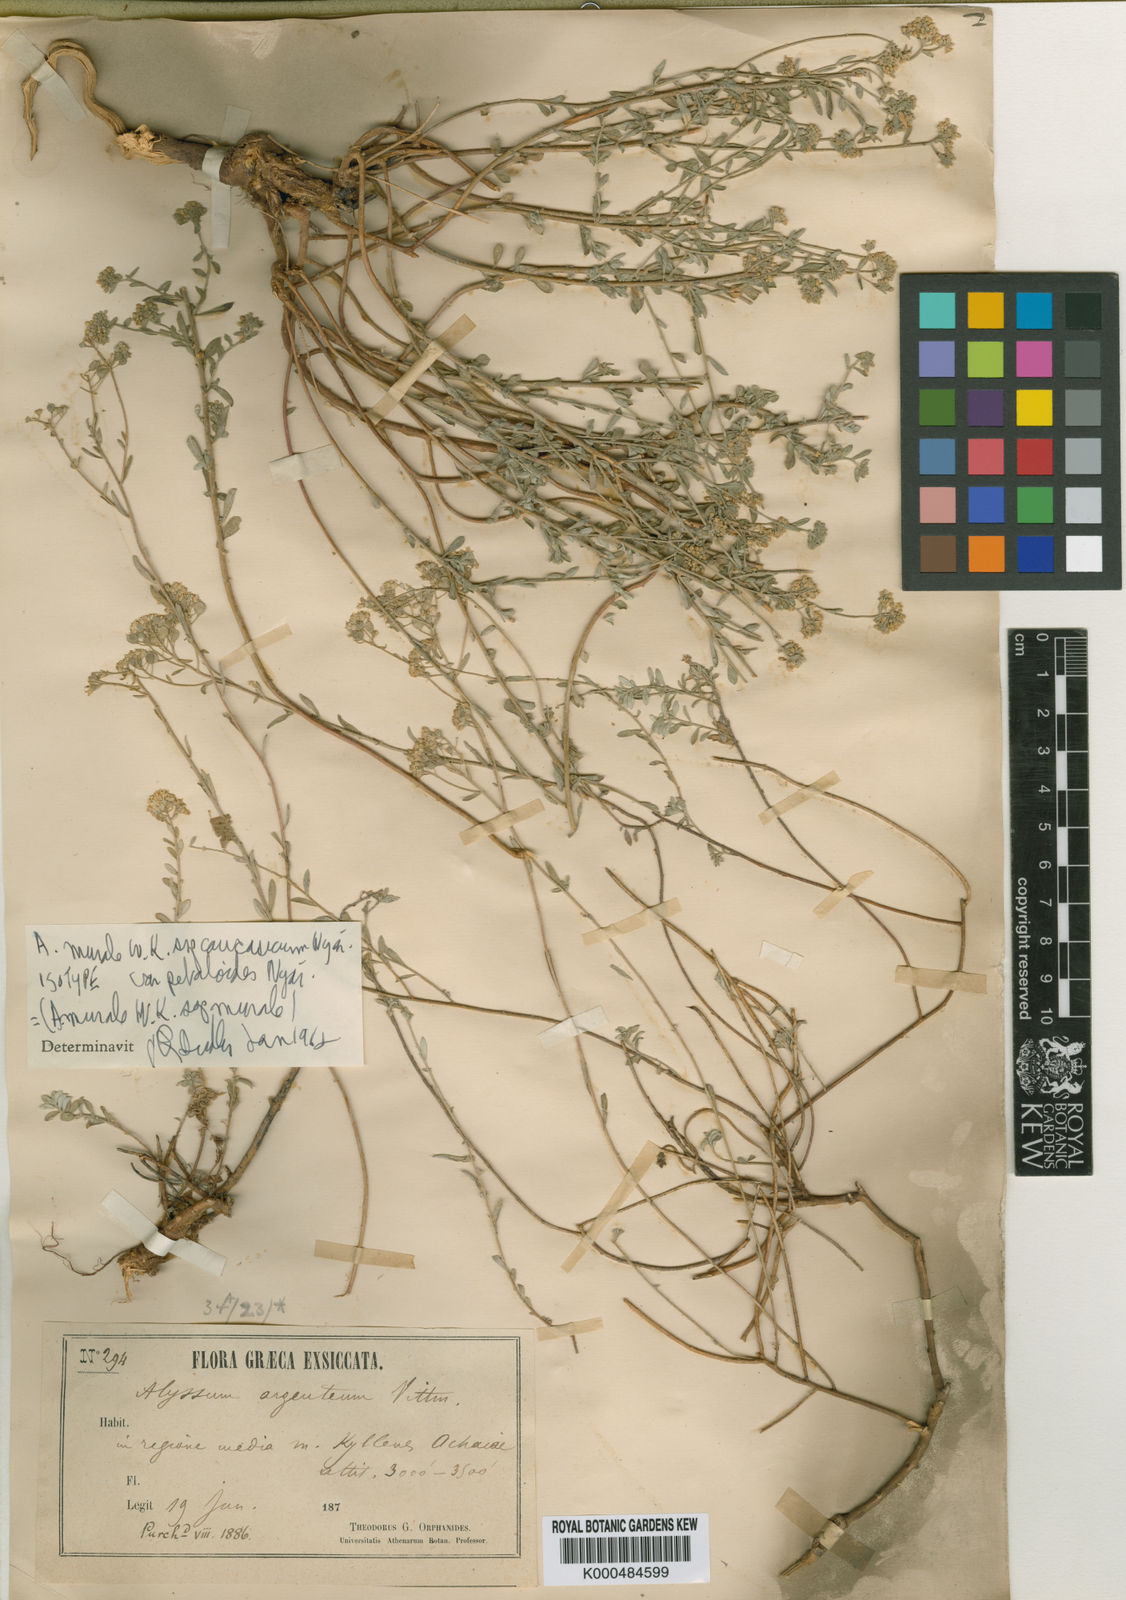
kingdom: Plantae
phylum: Tracheophyta
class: Magnoliopsida
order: Brassicales
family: Brassicaceae
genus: Odontarrhena
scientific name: Odontarrhena muralis
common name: Rock alyssum
